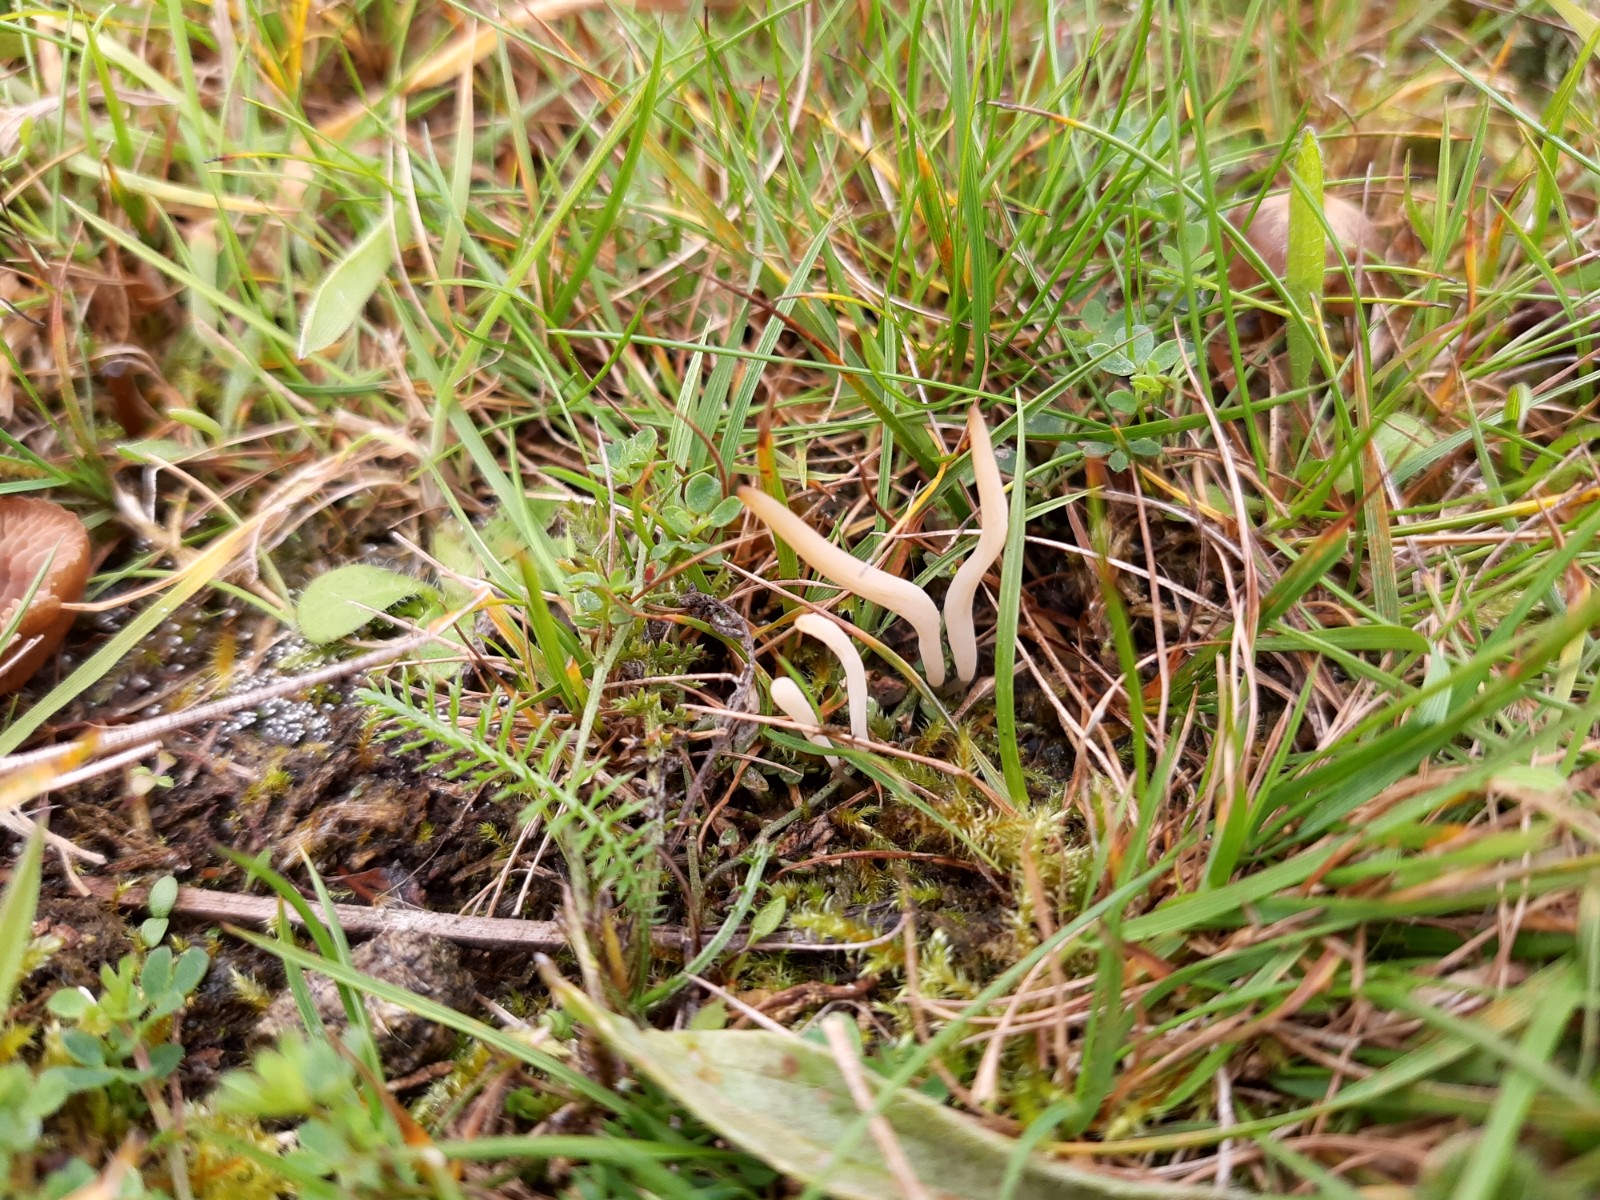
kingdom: Fungi
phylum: Basidiomycota
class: Agaricomycetes
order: Agaricales
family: Clavariaceae
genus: Clavaria
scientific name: Clavaria tenuipes
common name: isabellafarvet køllesvamp
